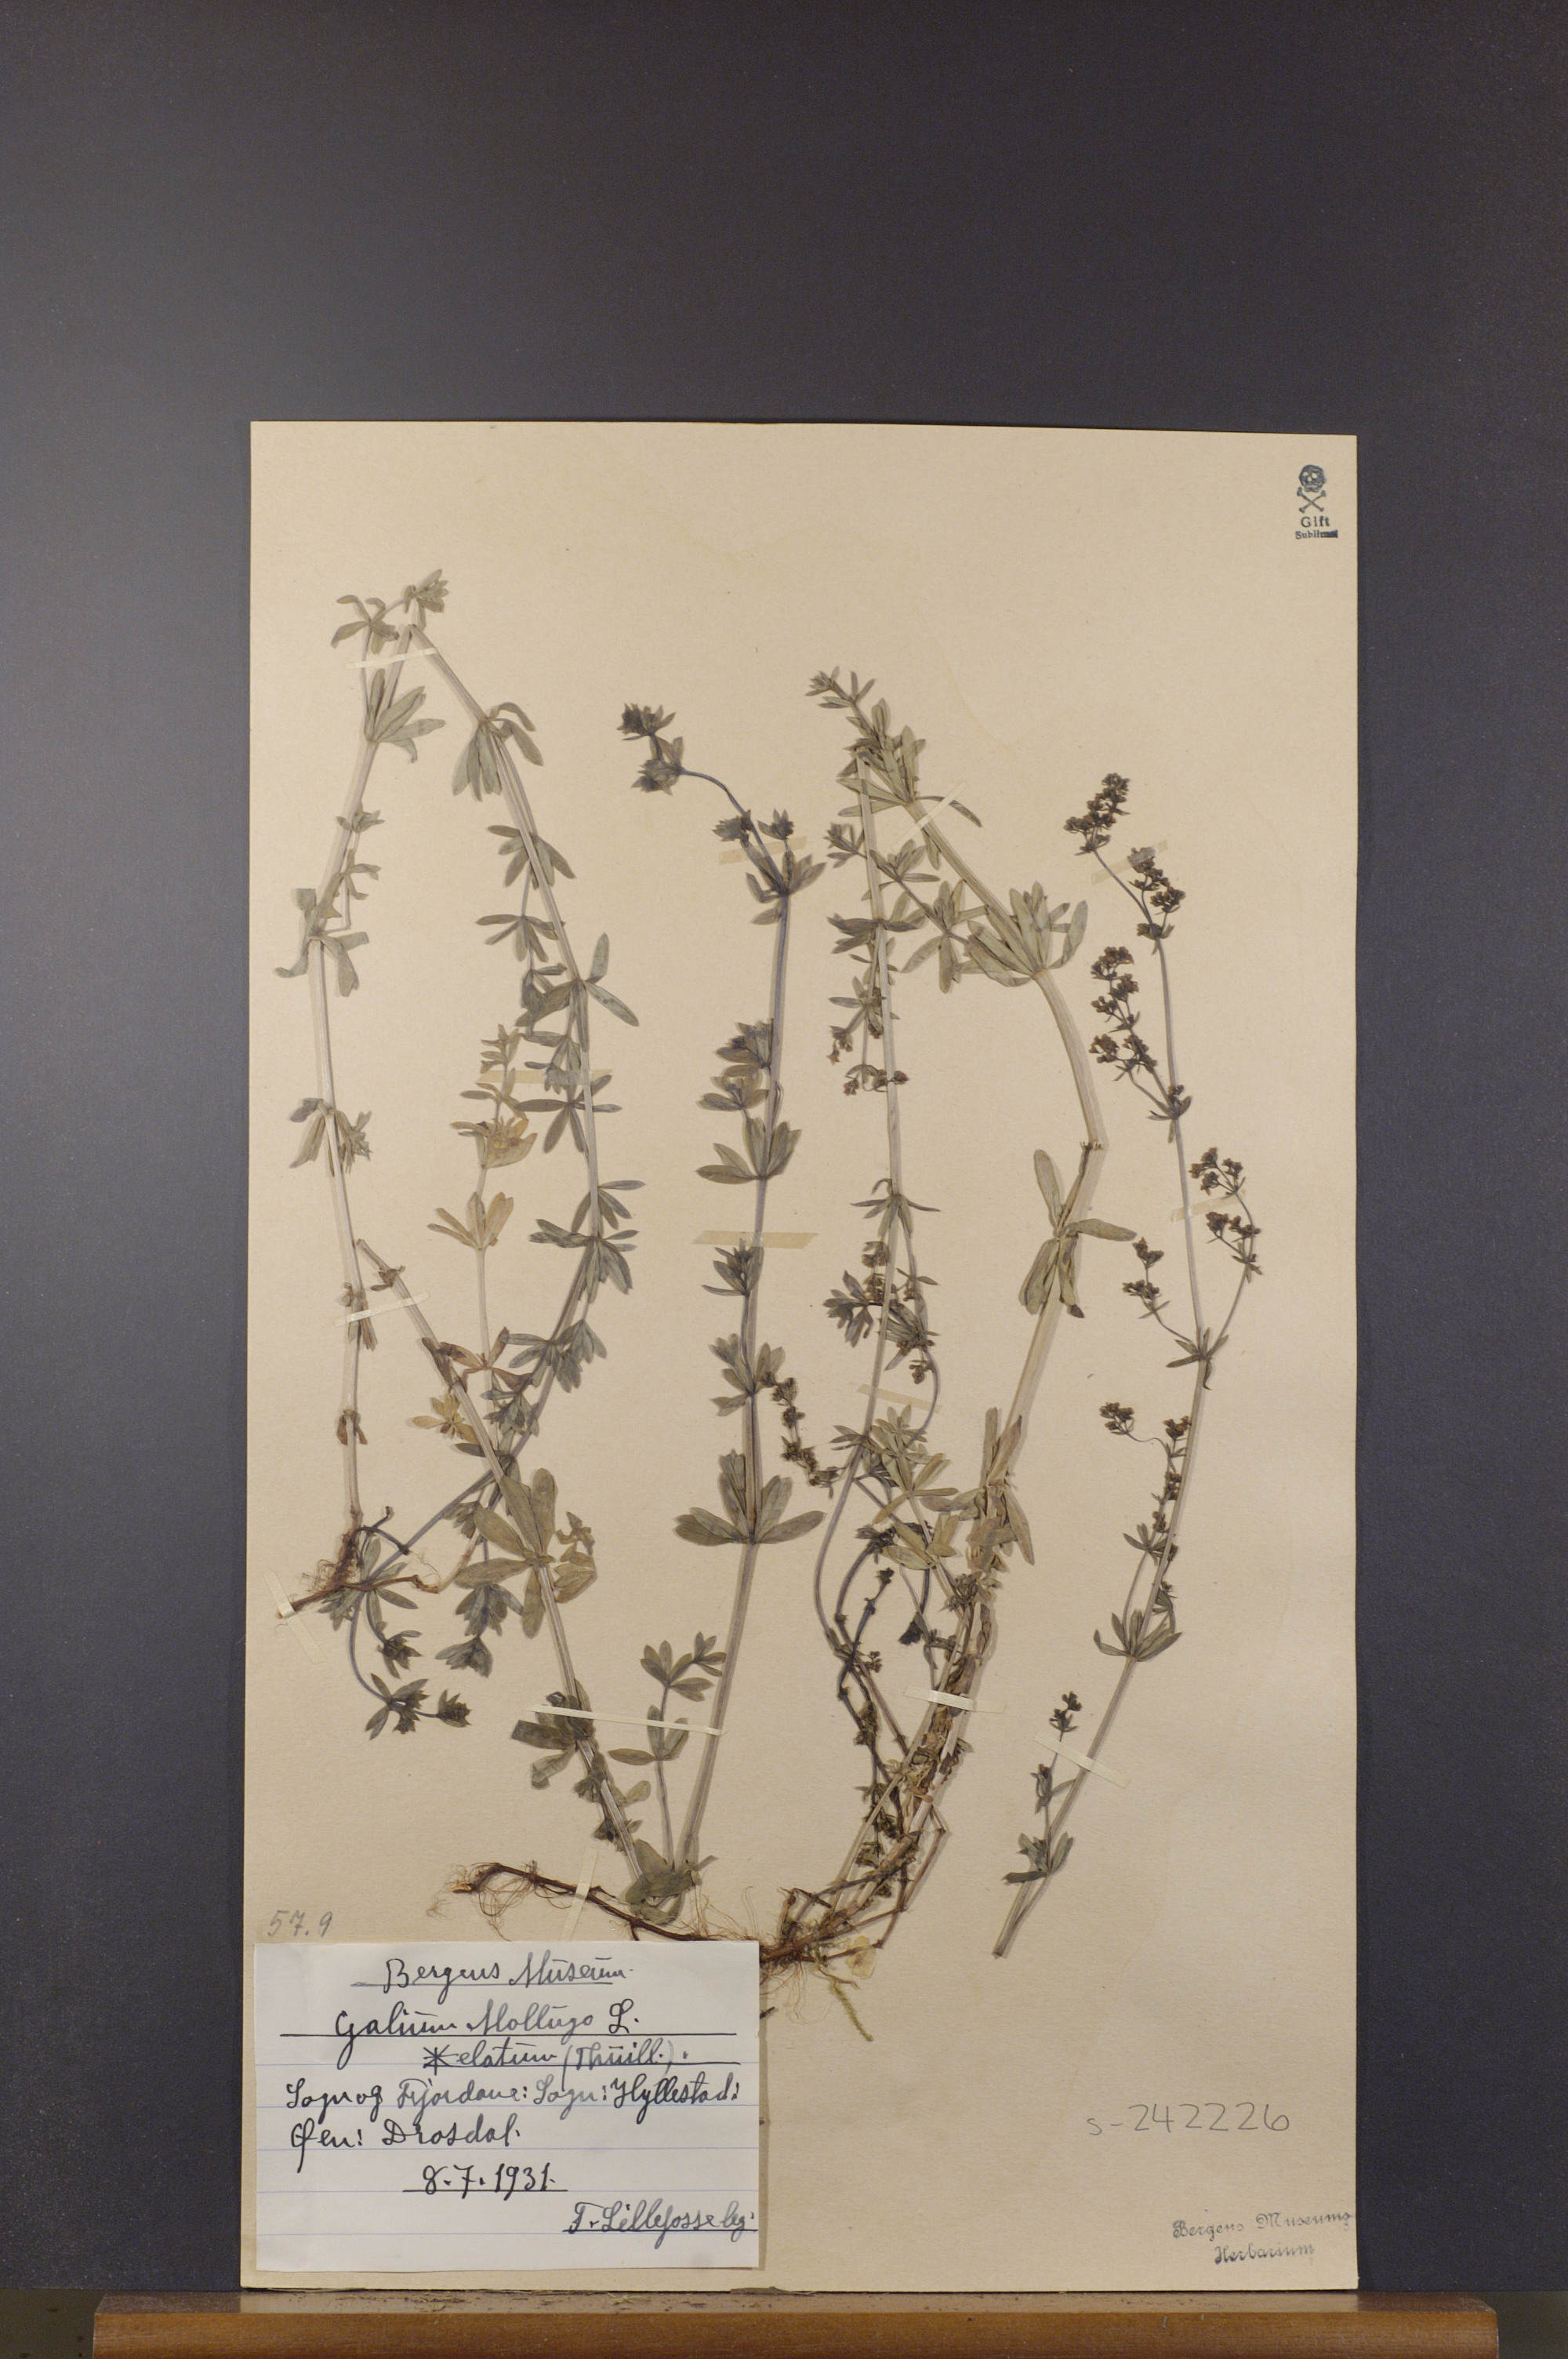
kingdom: Plantae
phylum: Tracheophyta
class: Magnoliopsida
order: Gentianales
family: Rubiaceae
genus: Galium
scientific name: Galium mollugo
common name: Hedge bedstraw
